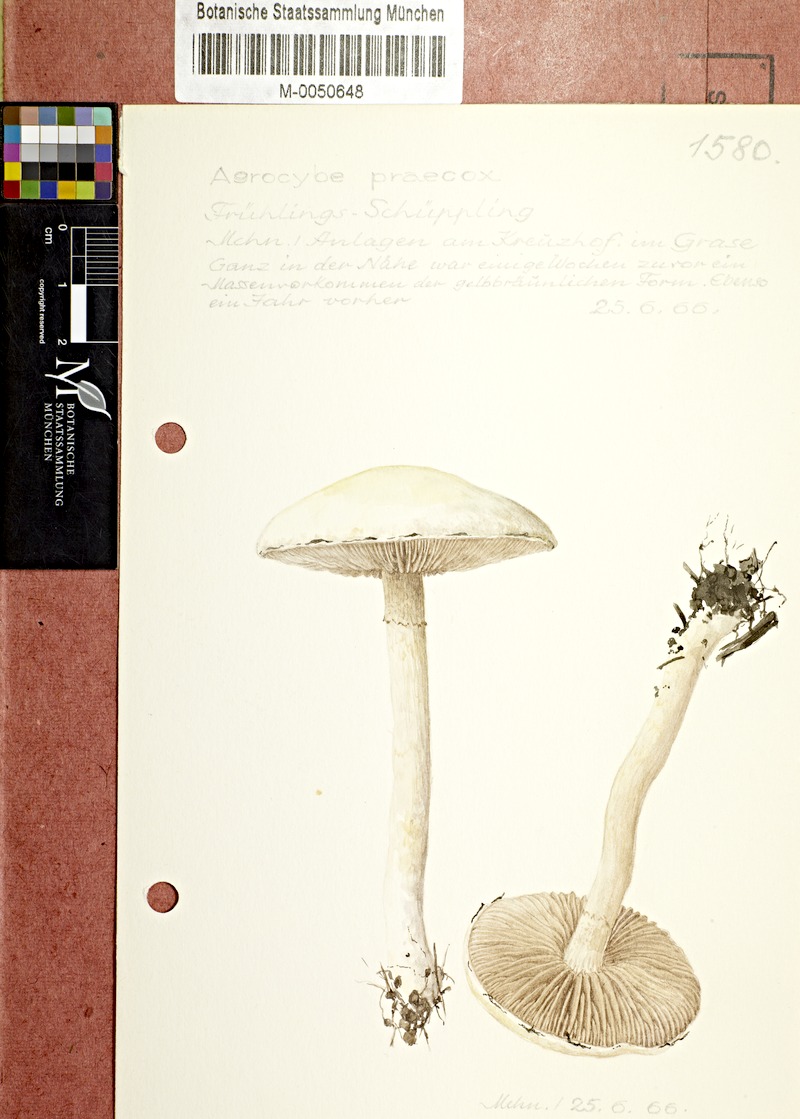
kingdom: Fungi
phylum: Basidiomycota
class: Agaricomycetes
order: Agaricales
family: Strophariaceae
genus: Agrocybe
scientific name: Agrocybe praecox
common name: Spring fieldcap
